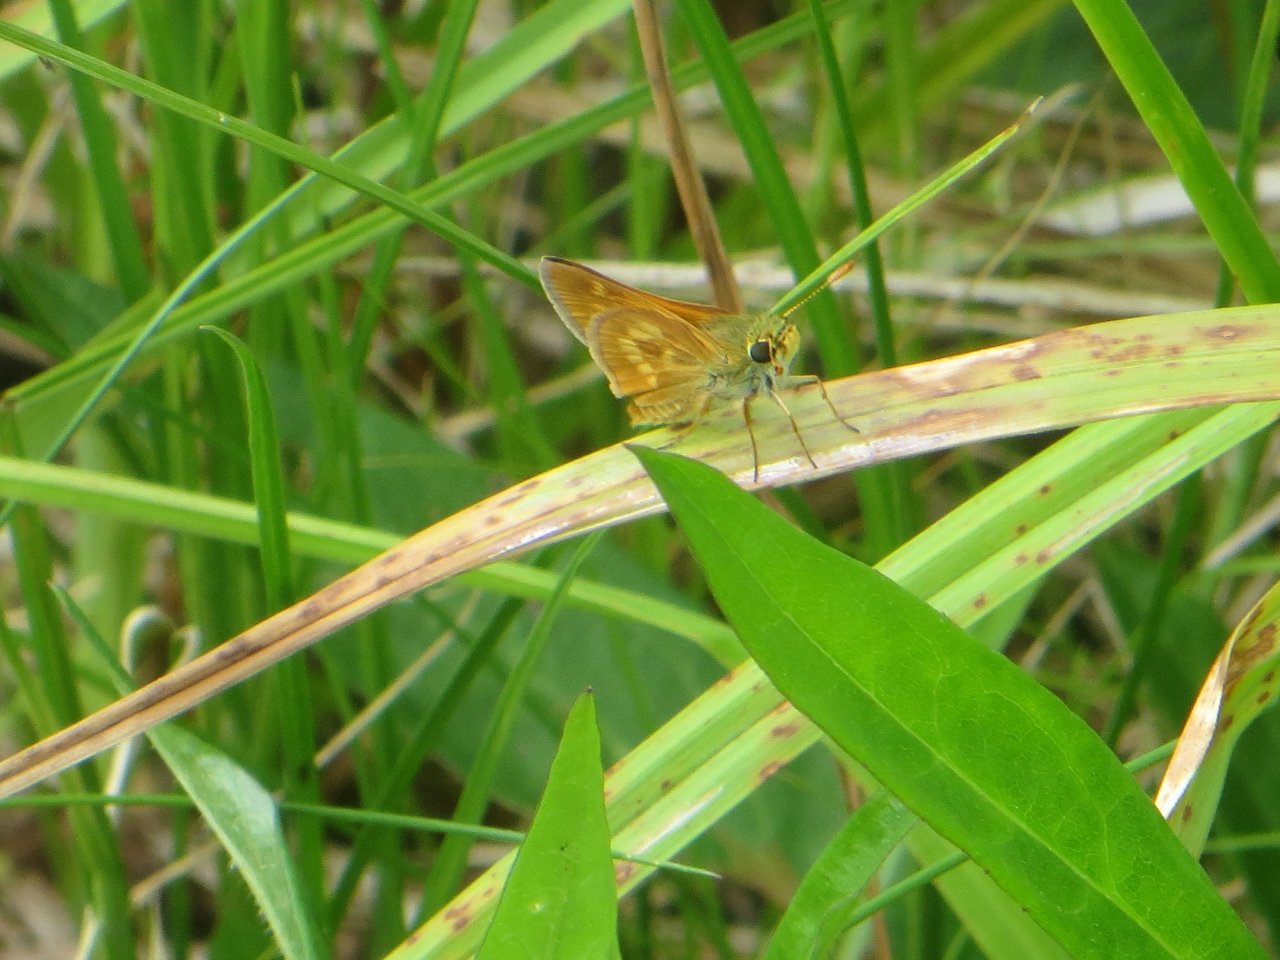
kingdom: Animalia
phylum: Arthropoda
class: Insecta
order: Lepidoptera
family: Hesperiidae
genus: Polites
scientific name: Polites
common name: Long Dash Skipper
